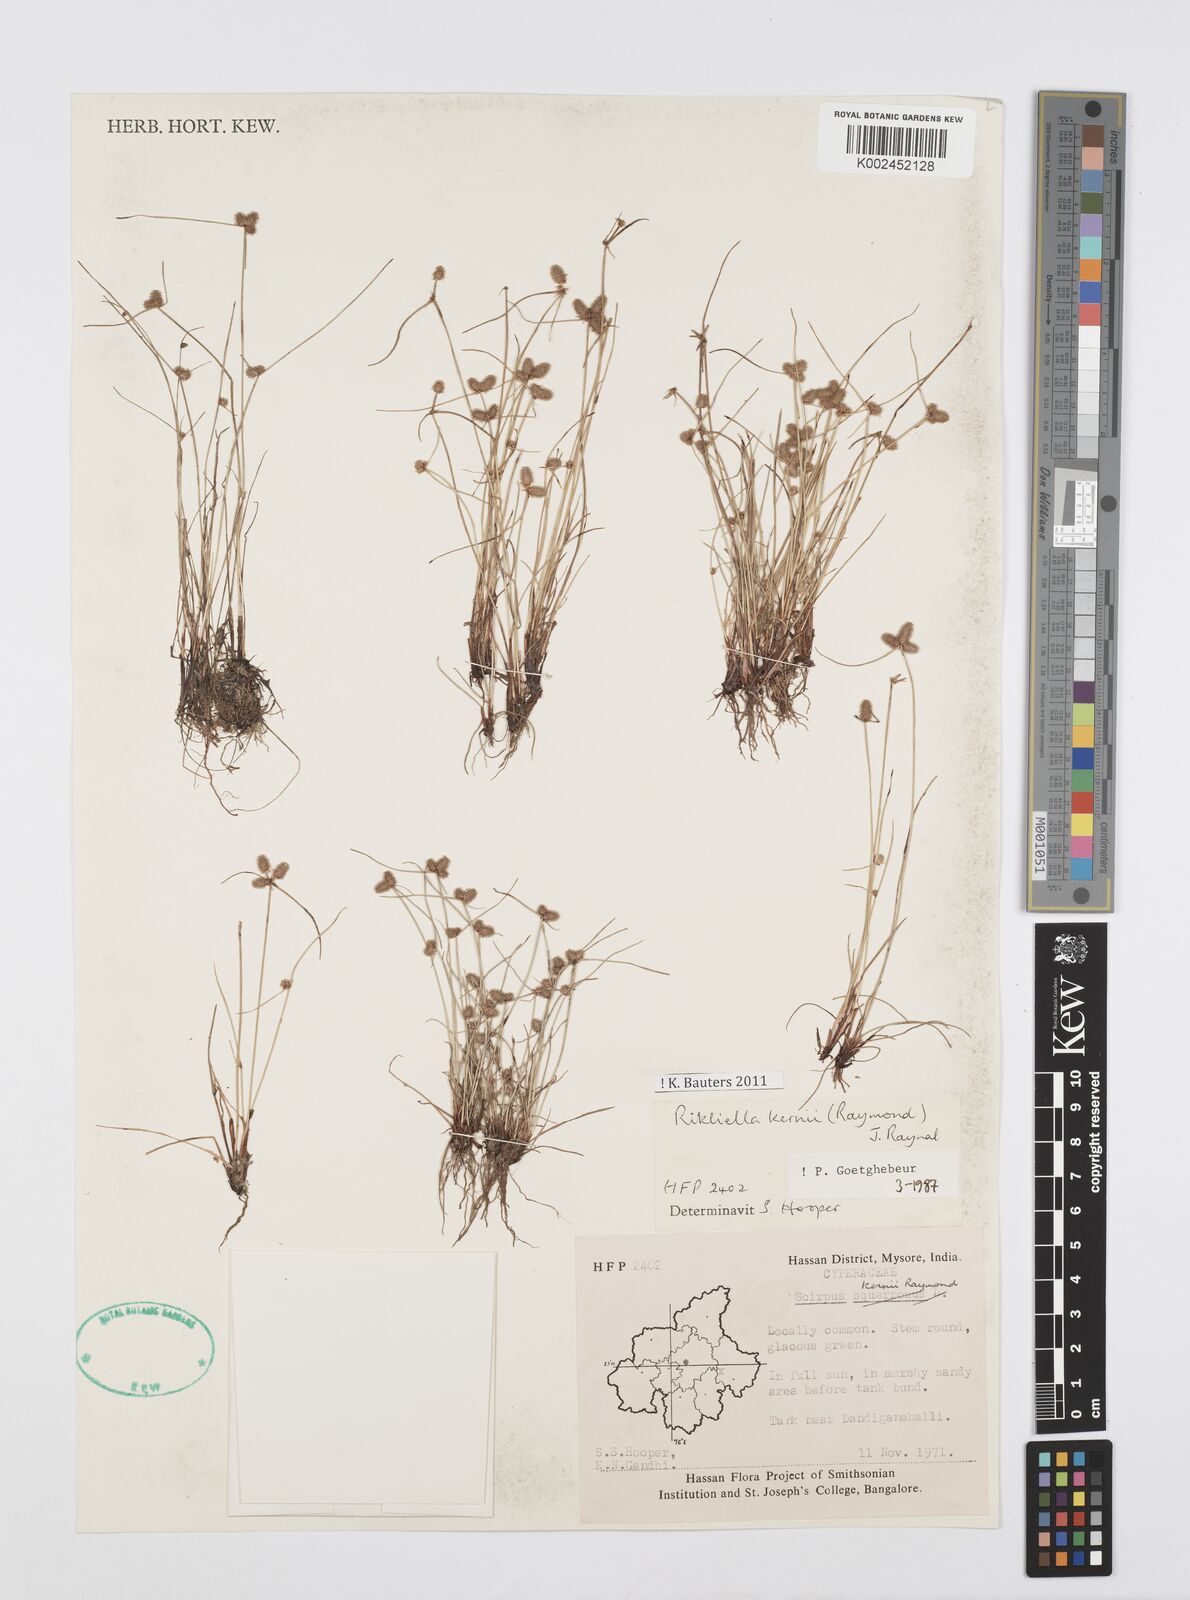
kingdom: Plantae
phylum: Tracheophyta
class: Liliopsida
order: Poales
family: Cyperaceae
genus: Cyperus
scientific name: Cyperus kernii
